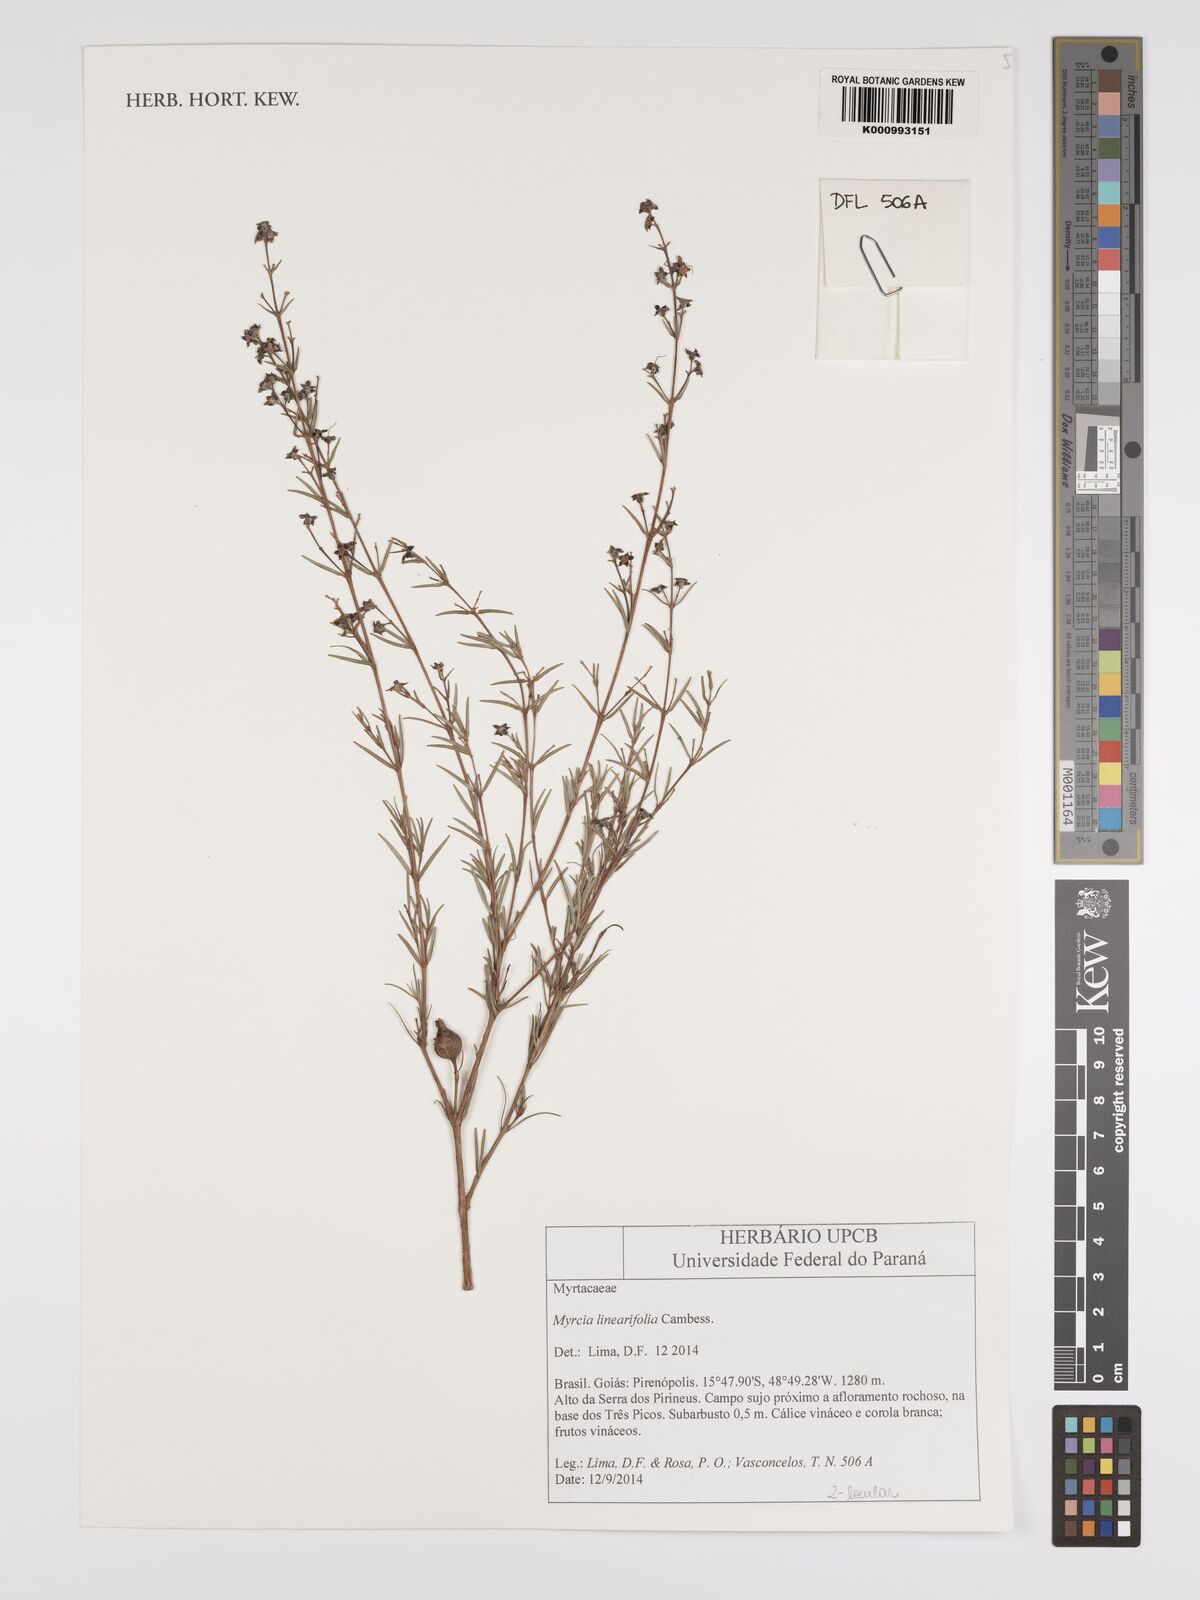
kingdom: Plantae
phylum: Tracheophyta
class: Magnoliopsida
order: Myrtales
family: Myrtaceae
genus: Myrcia
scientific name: Myrcia linearifolia
